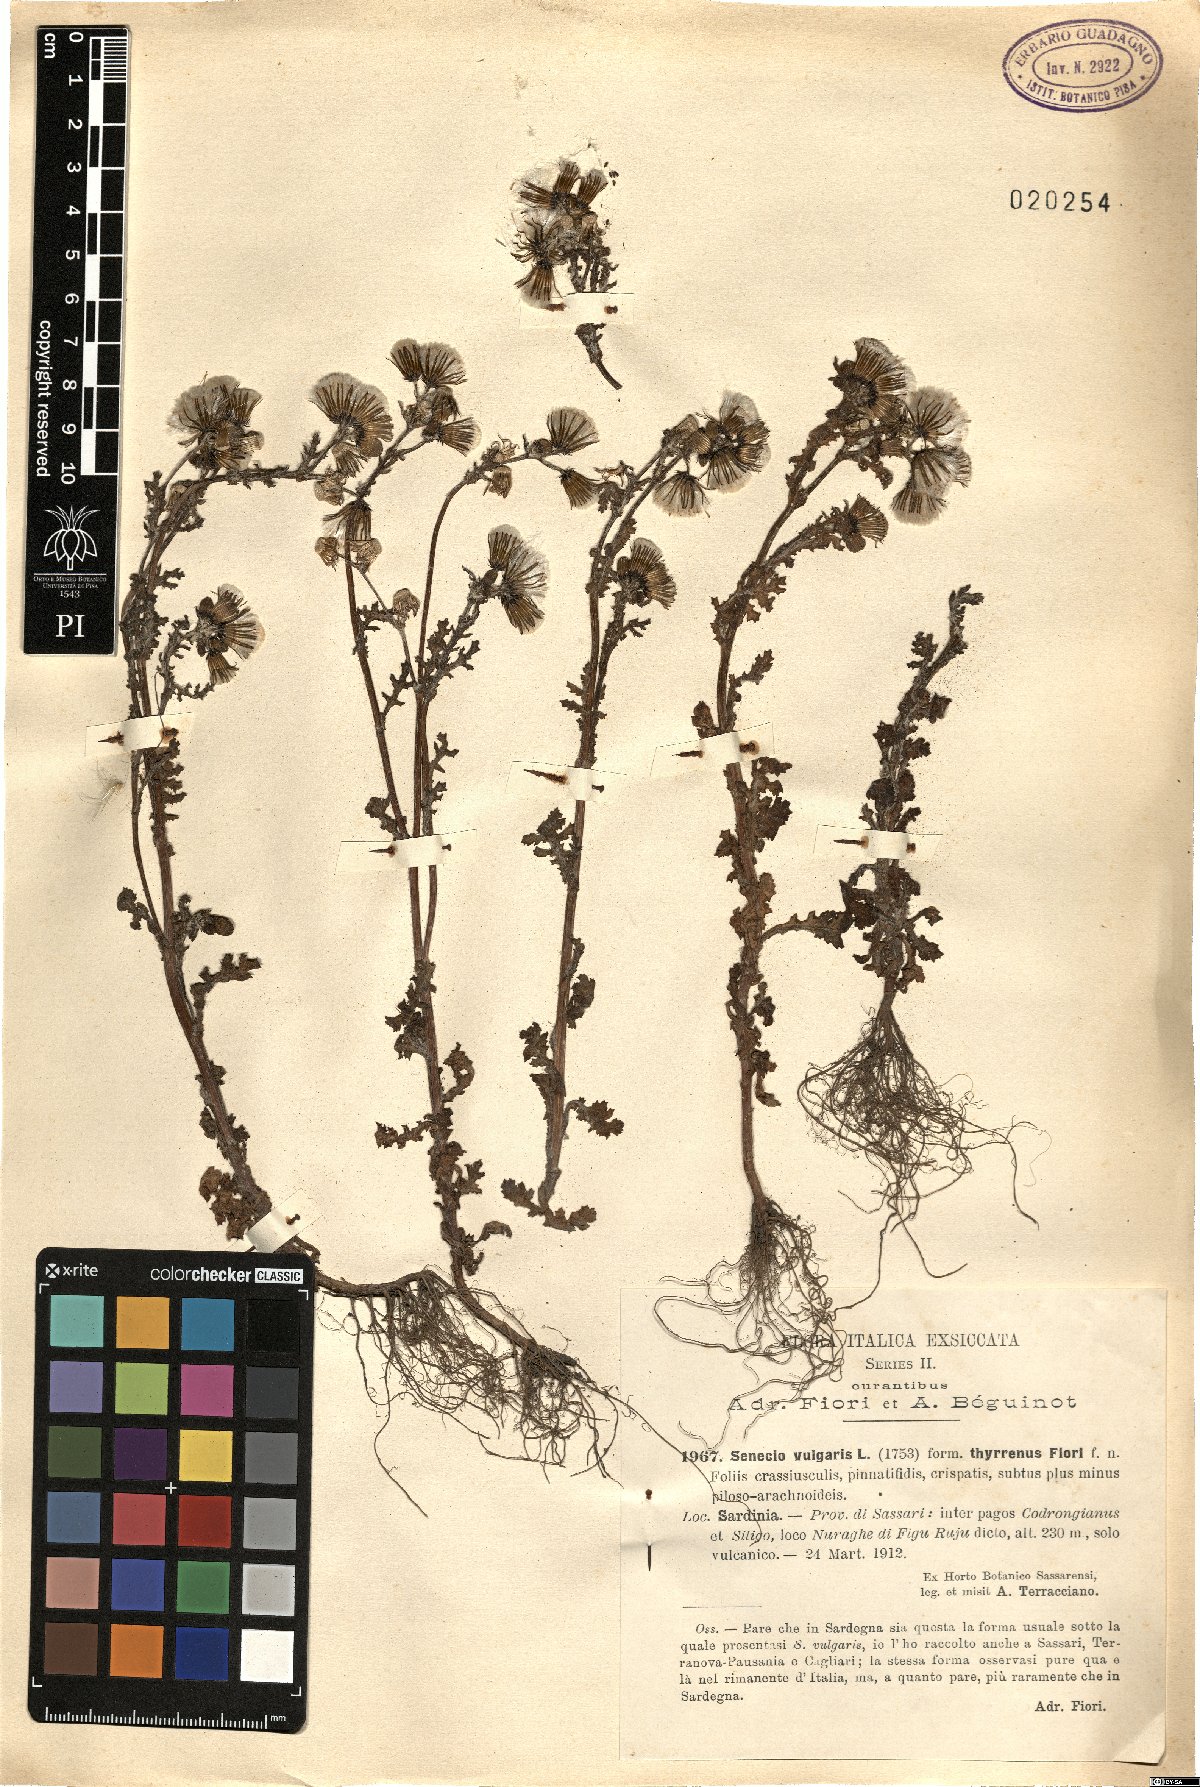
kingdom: Plantae
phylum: Tracheophyta
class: Magnoliopsida
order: Asterales
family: Asteraceae
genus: Senecio
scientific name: Senecio vulgaris
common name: Old-man-in-the-spring
